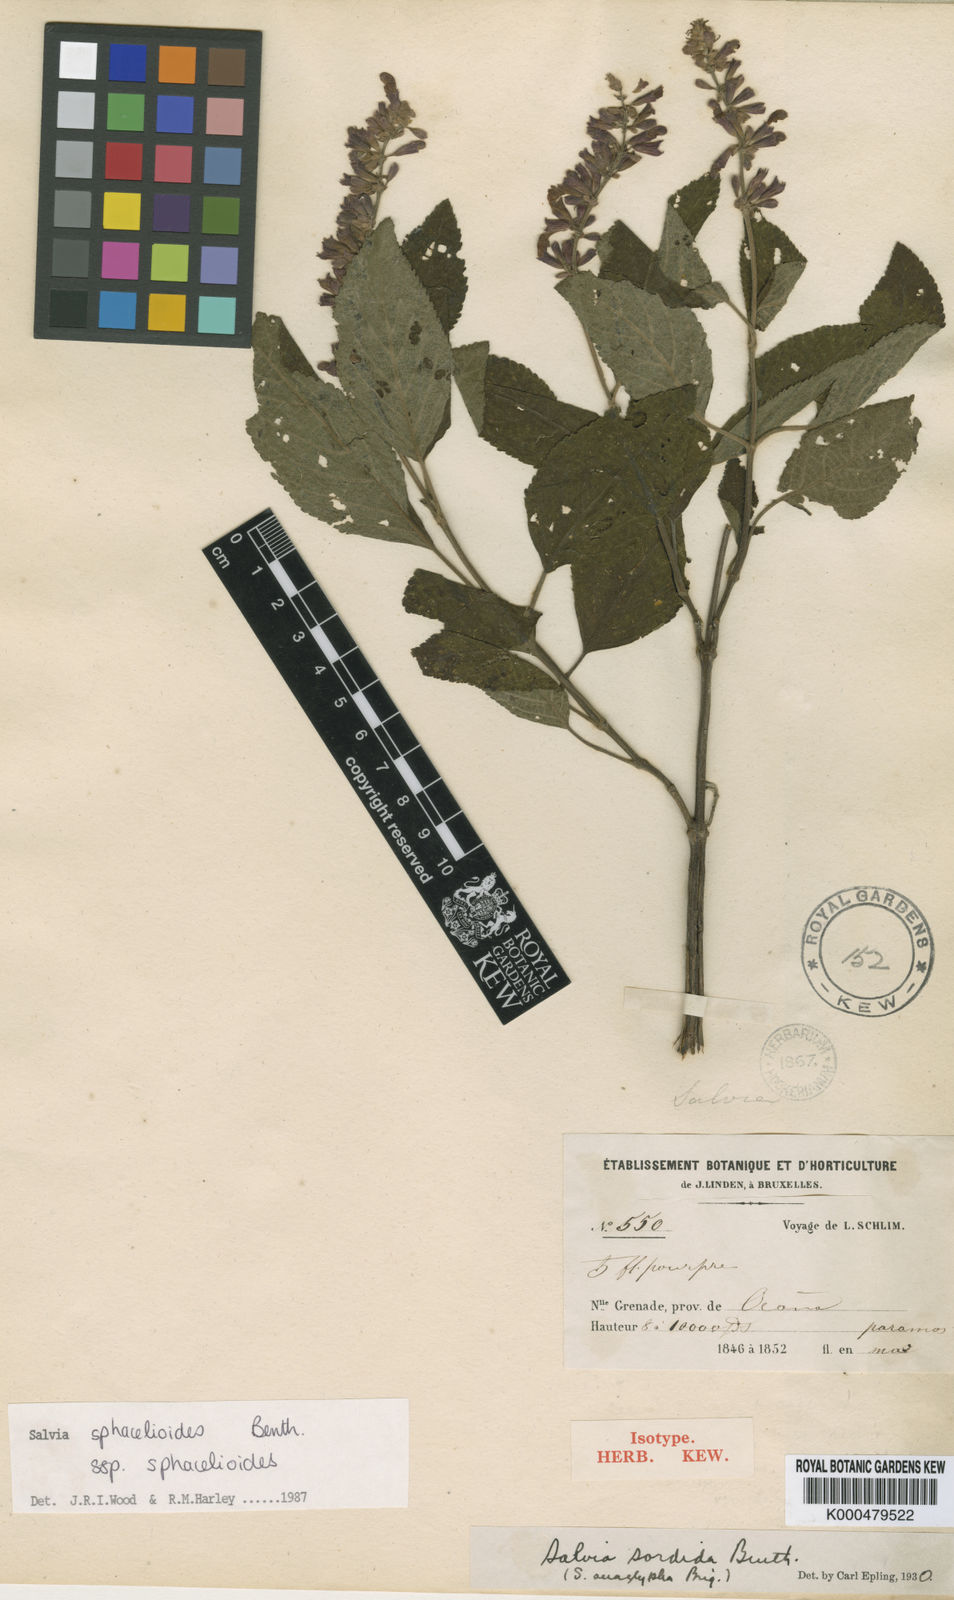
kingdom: Plantae
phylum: Tracheophyta
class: Magnoliopsida
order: Lamiales
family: Lamiaceae
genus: Salvia
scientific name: Salvia sphacelioides
